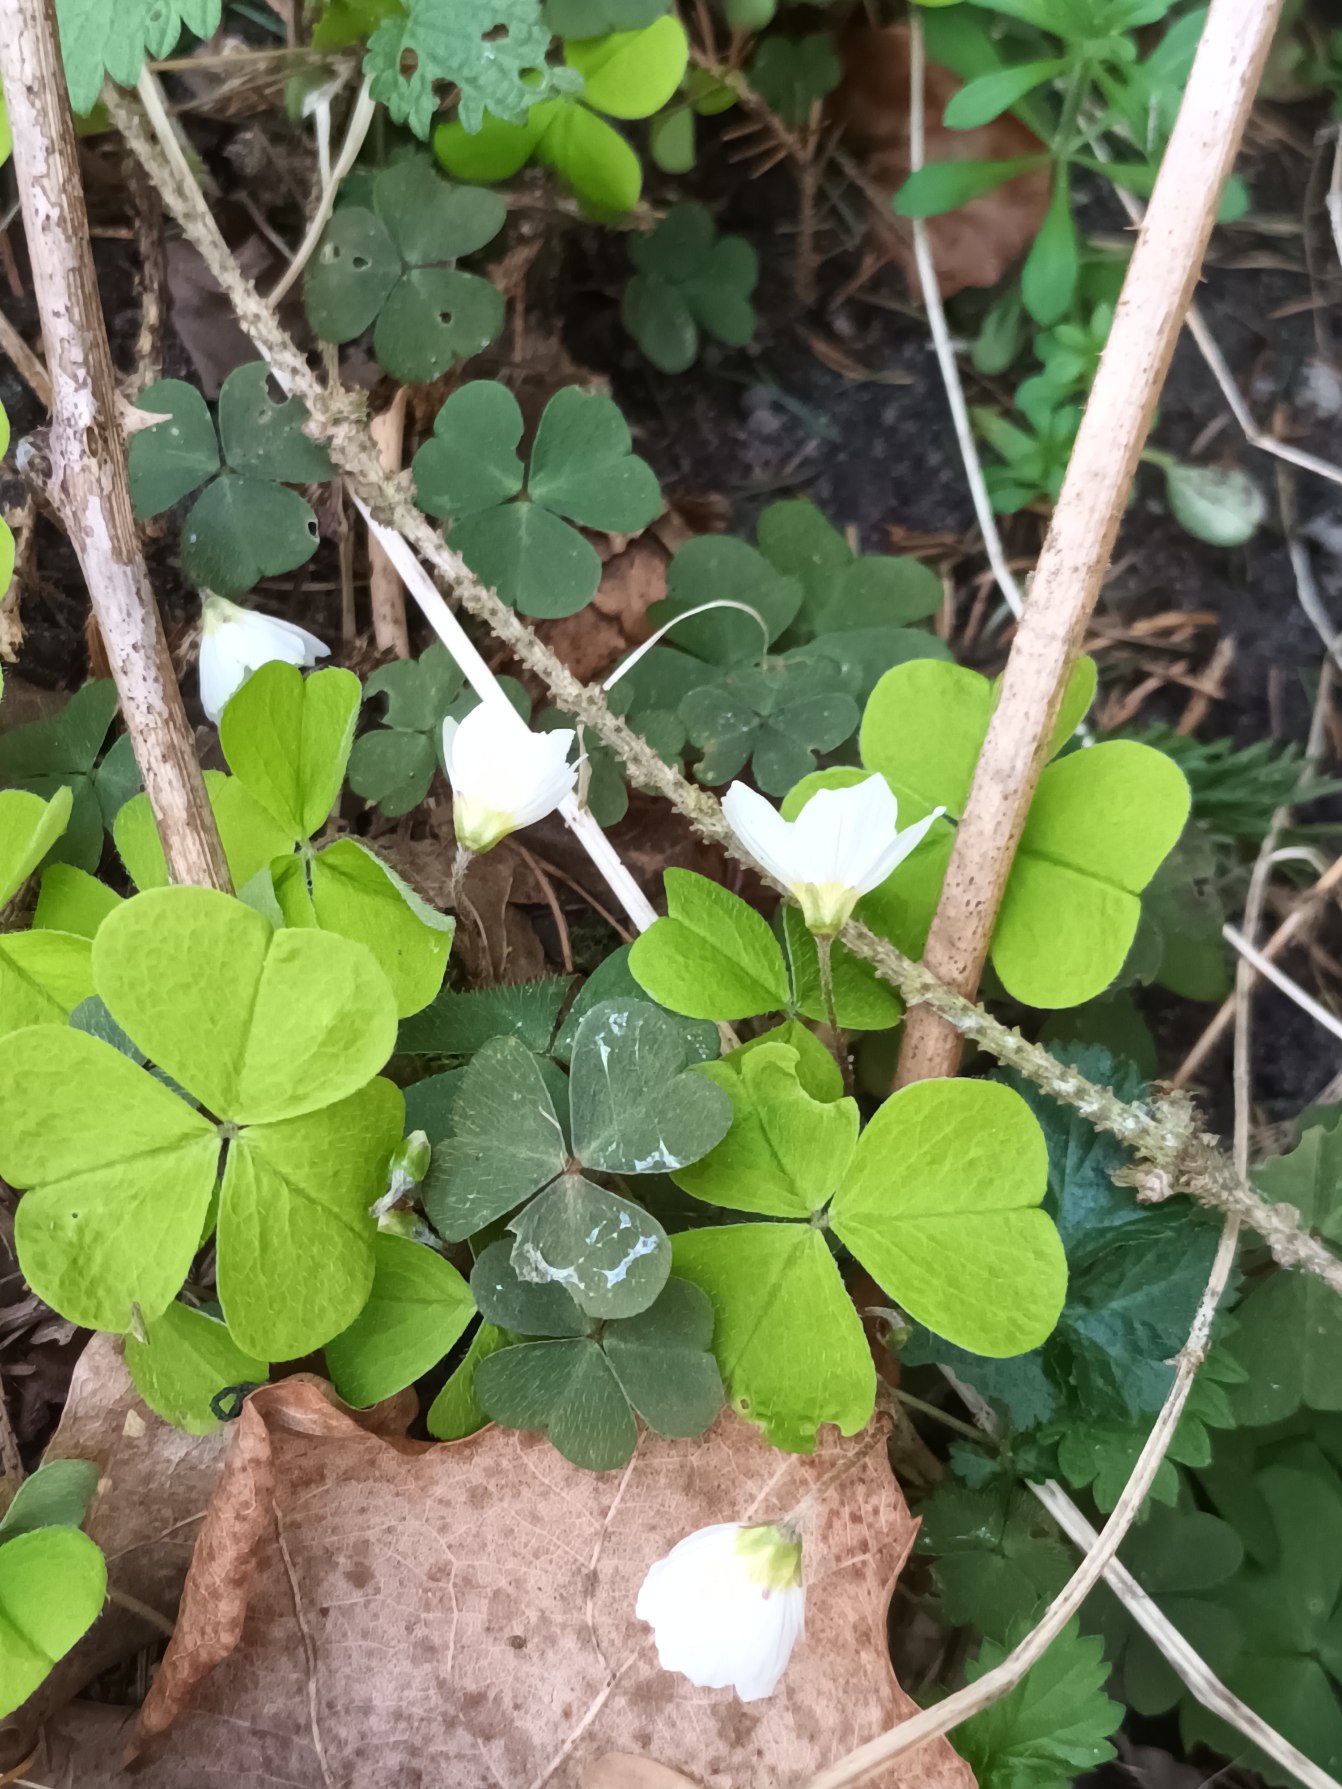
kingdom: Plantae
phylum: Tracheophyta
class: Magnoliopsida
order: Oxalidales
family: Oxalidaceae
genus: Oxalis
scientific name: Oxalis acetosella
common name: Skovsyre
